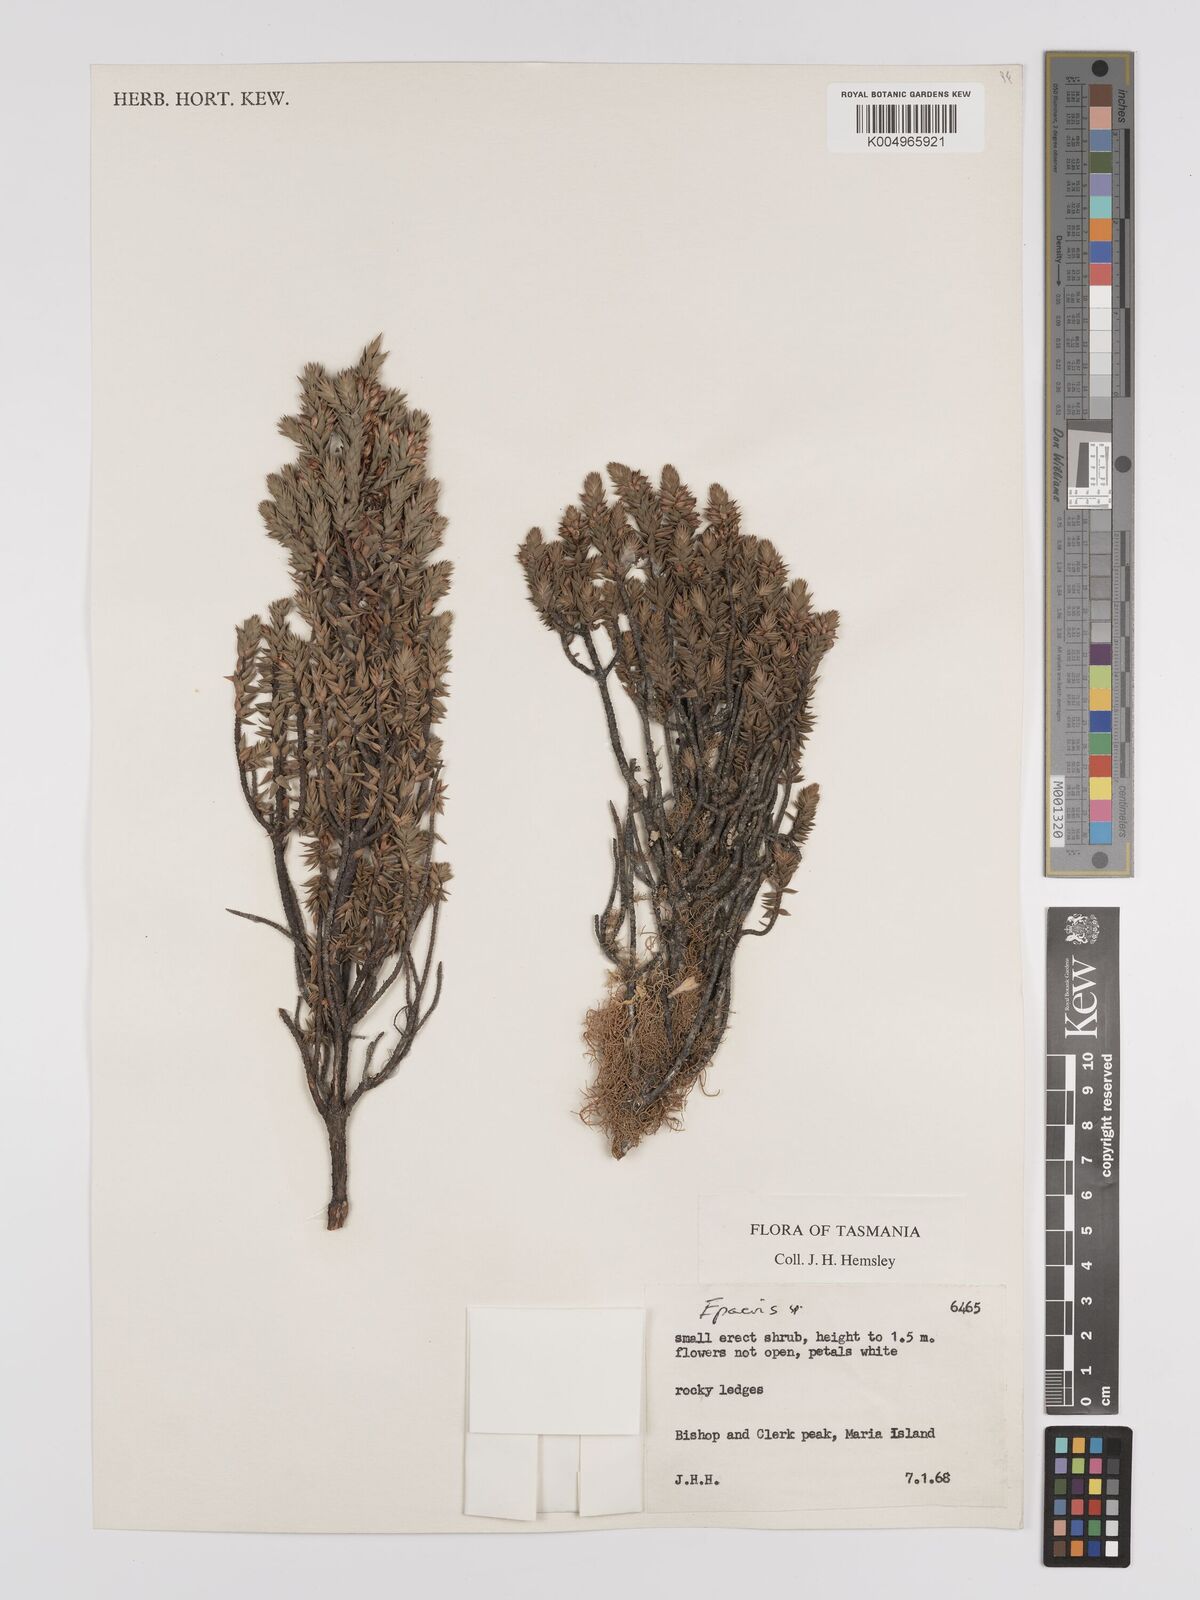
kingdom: Plantae
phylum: Tracheophyta
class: Magnoliopsida
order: Ericales
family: Ericaceae
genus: Epacris
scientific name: Epacris
